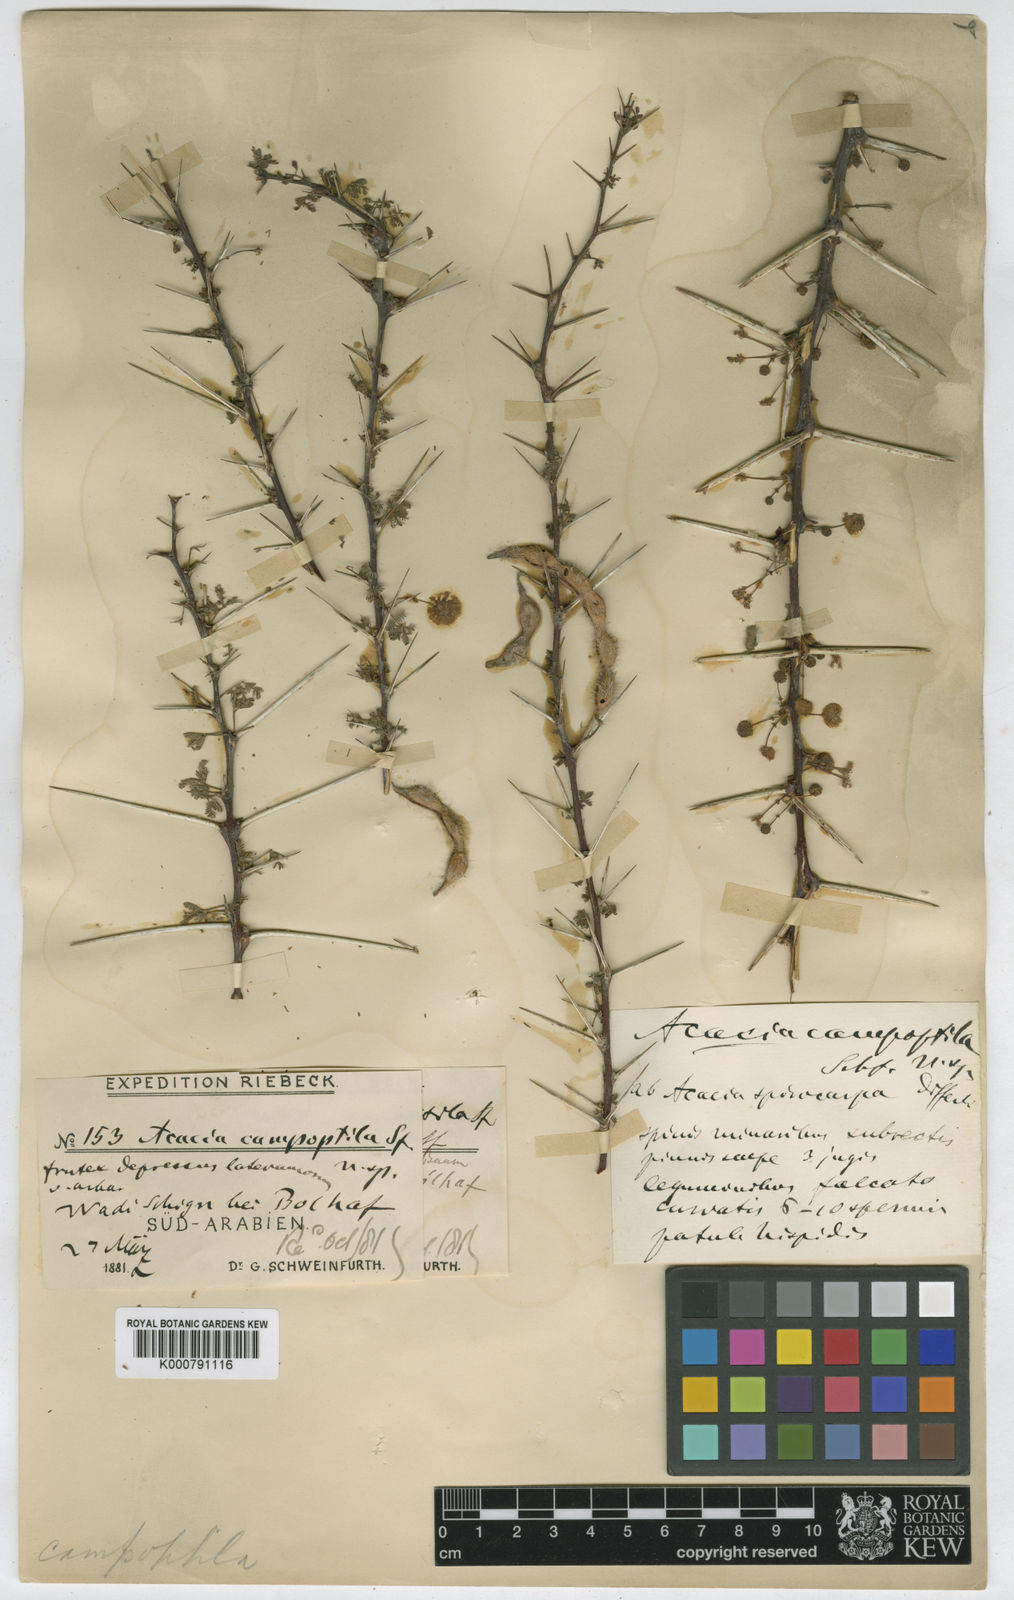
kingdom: Plantae
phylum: Tracheophyta
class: Magnoliopsida
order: Fabales
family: Fabaceae
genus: Vachellia
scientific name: Vachellia tortilis
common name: Umbrella thorn acacia
